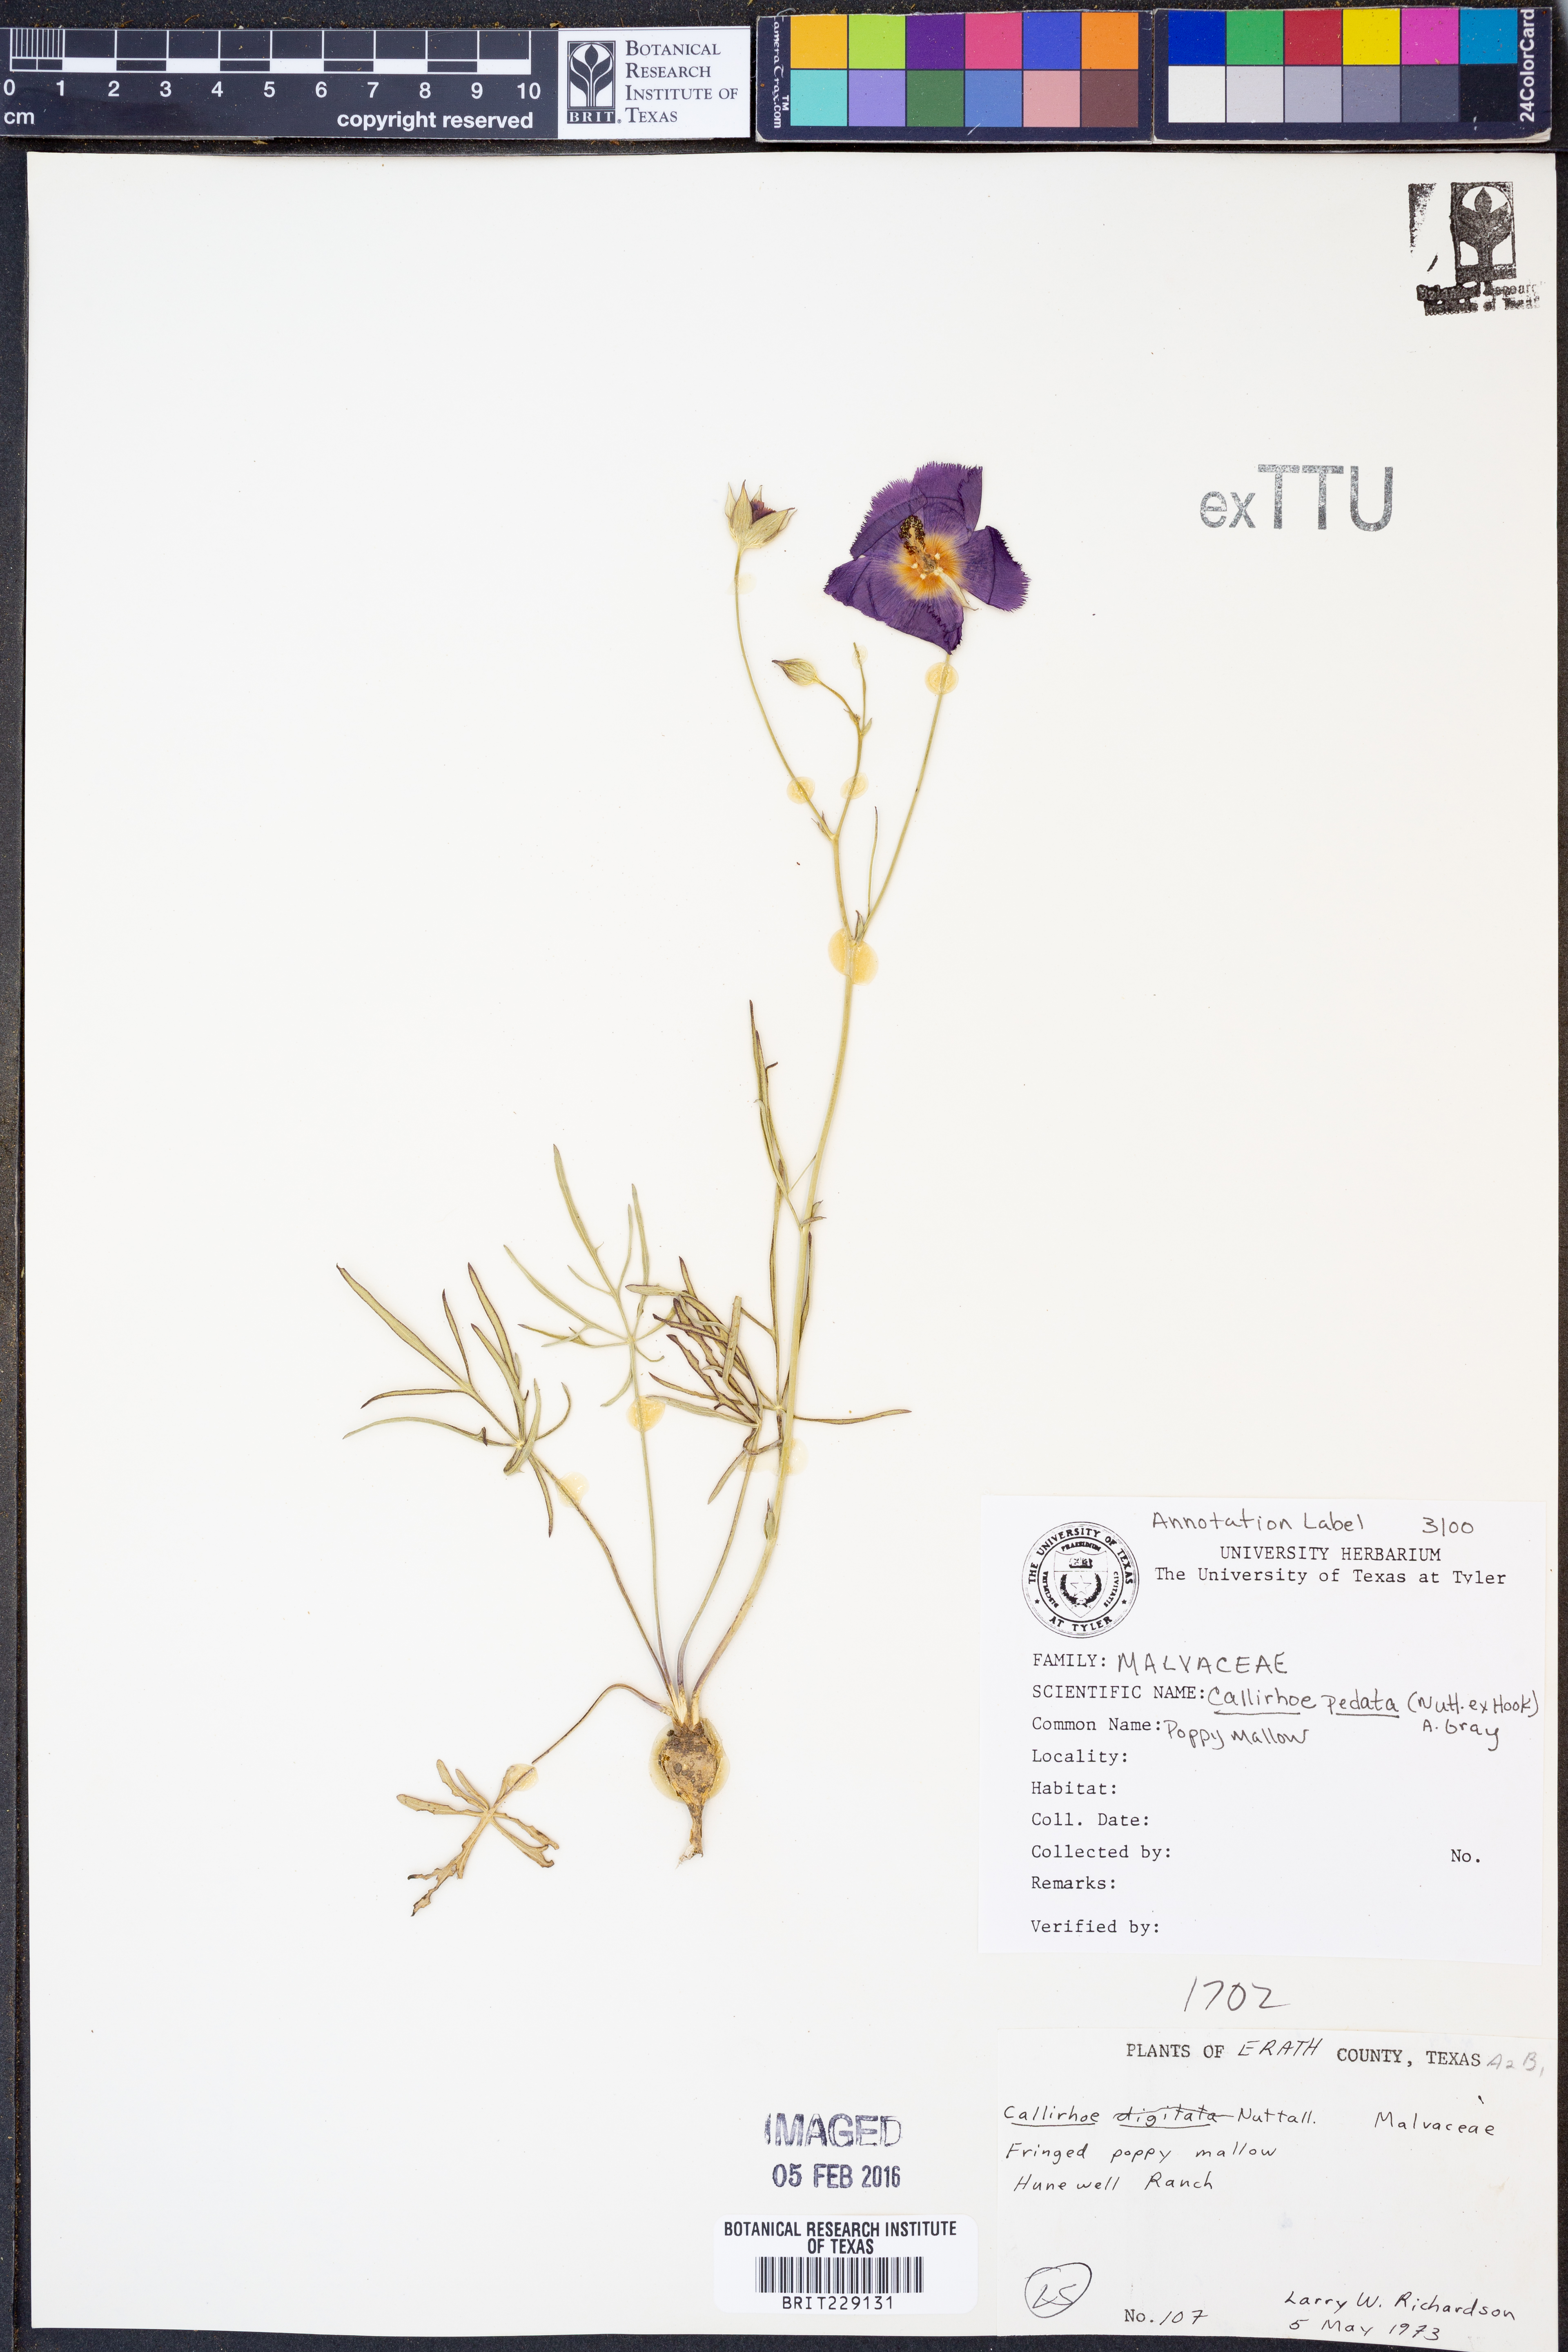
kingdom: Plantae
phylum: Tracheophyta
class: Magnoliopsida
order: Malvales
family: Malvaceae
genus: Callirhoe
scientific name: Callirhoe pedata
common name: Finger poppy-mallow
